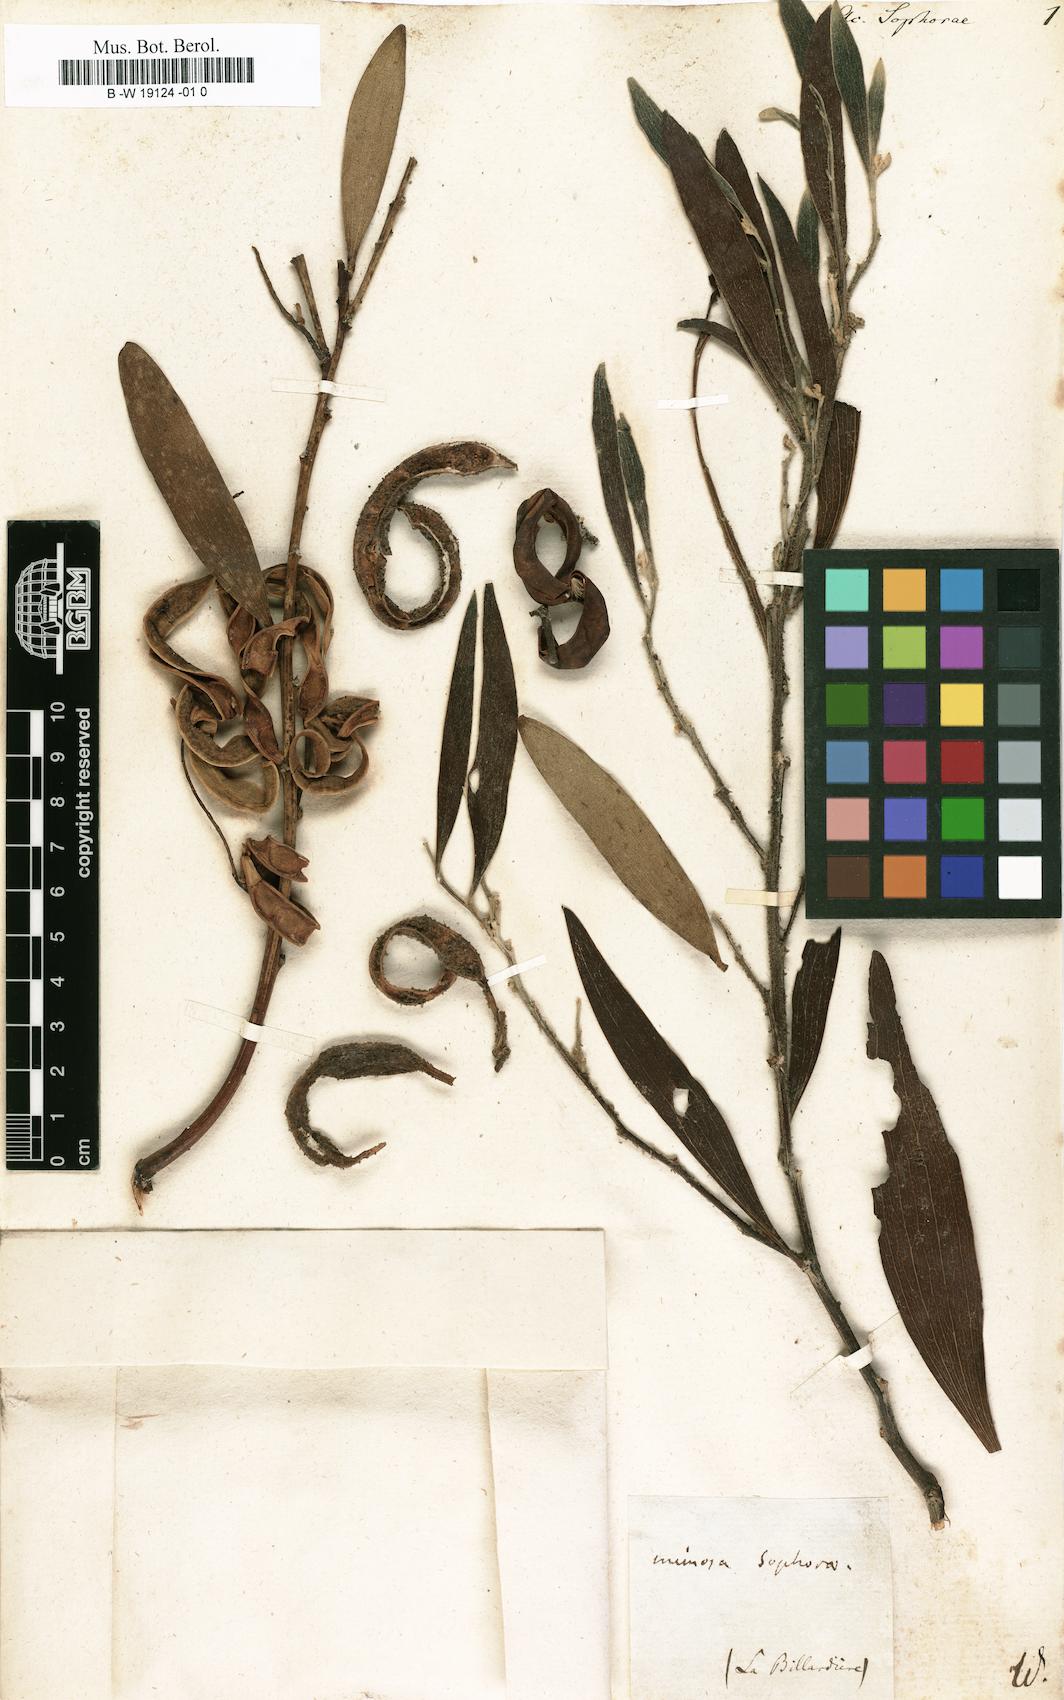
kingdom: Plantae
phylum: Tracheophyta
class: Magnoliopsida
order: Fabales
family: Fabaceae
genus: Acacia
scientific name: Acacia longifolia
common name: Sydney golden wattle
